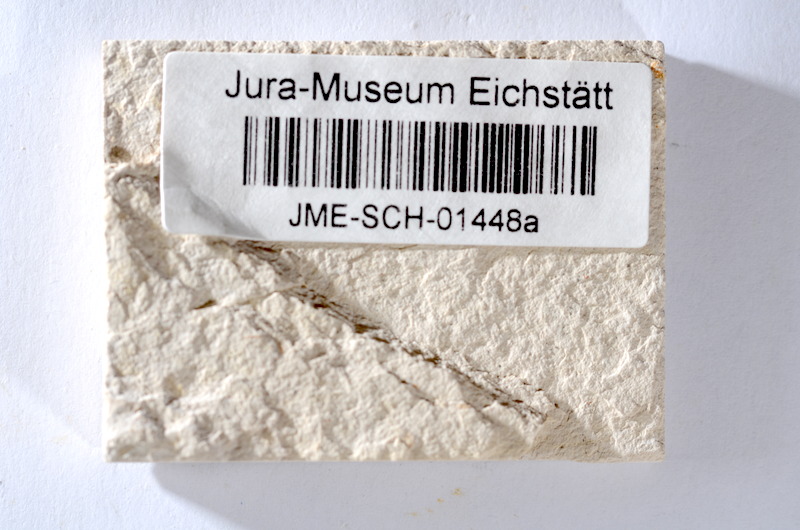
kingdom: Animalia
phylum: Chordata
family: Ascalaboidae
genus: Tharsis
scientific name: Tharsis dubius
